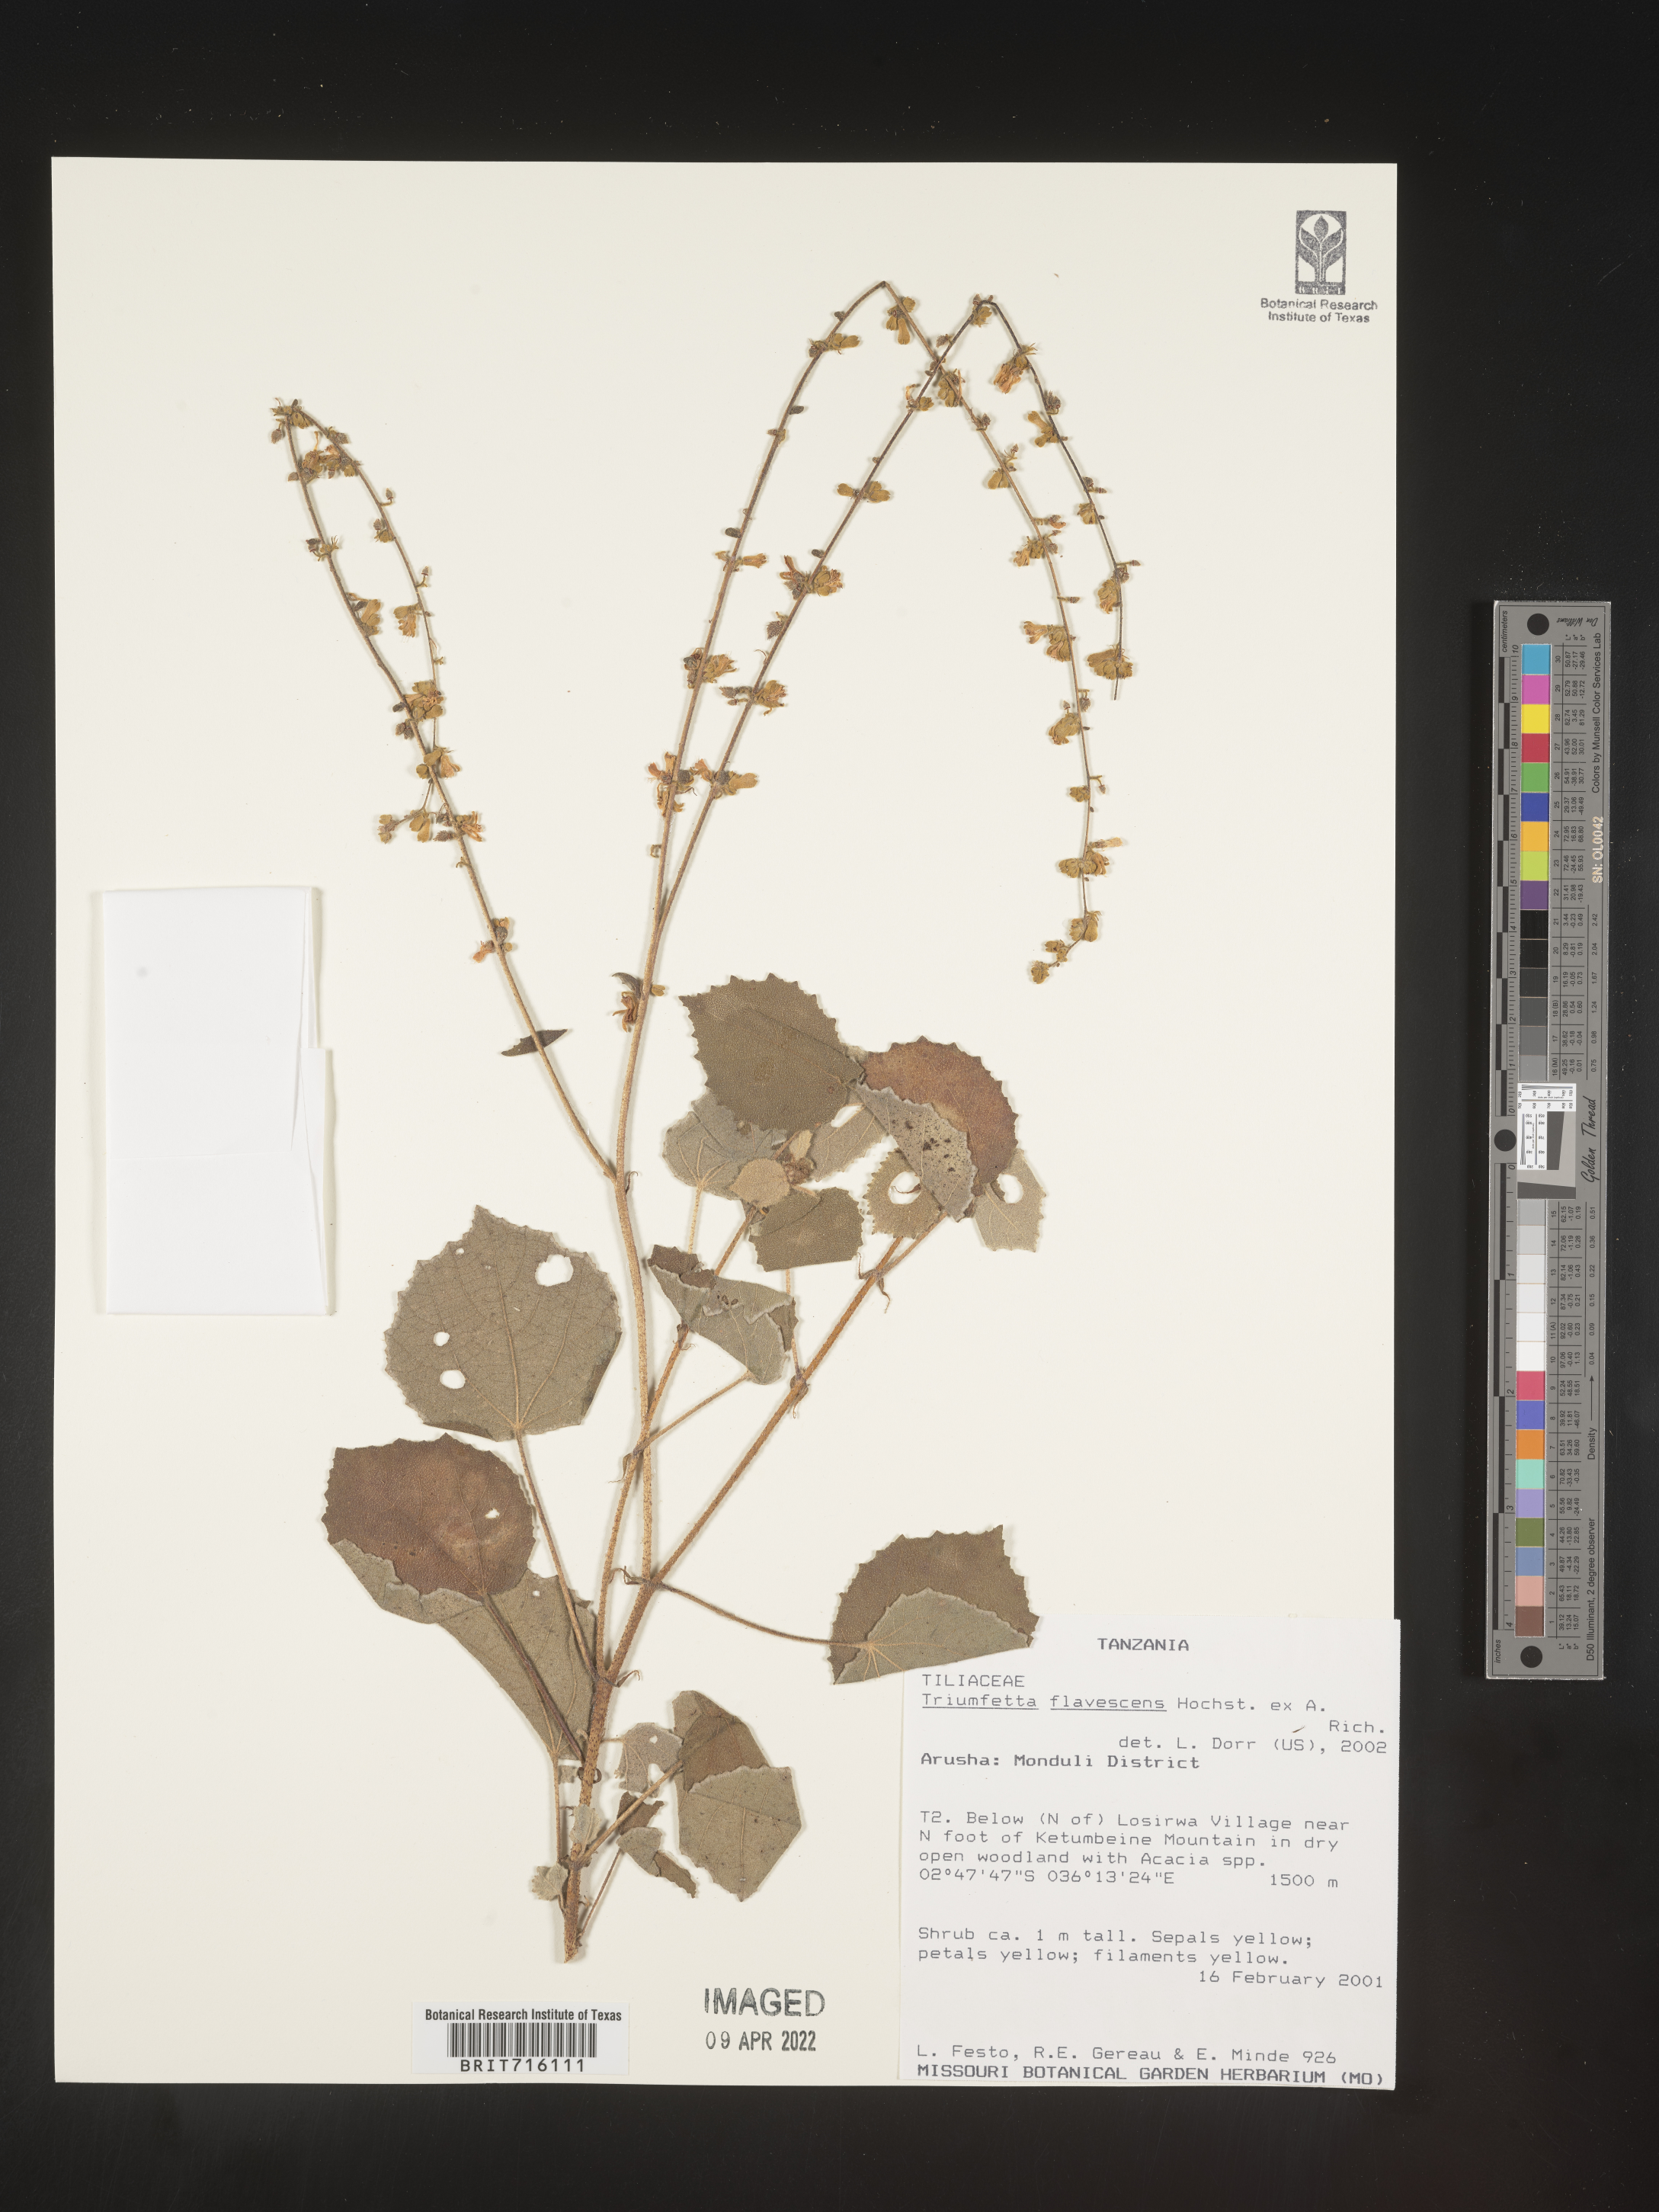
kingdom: Plantae
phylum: Tracheophyta
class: Magnoliopsida
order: Malvales
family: Malvaceae
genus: Triumfetta
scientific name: Triumfetta
